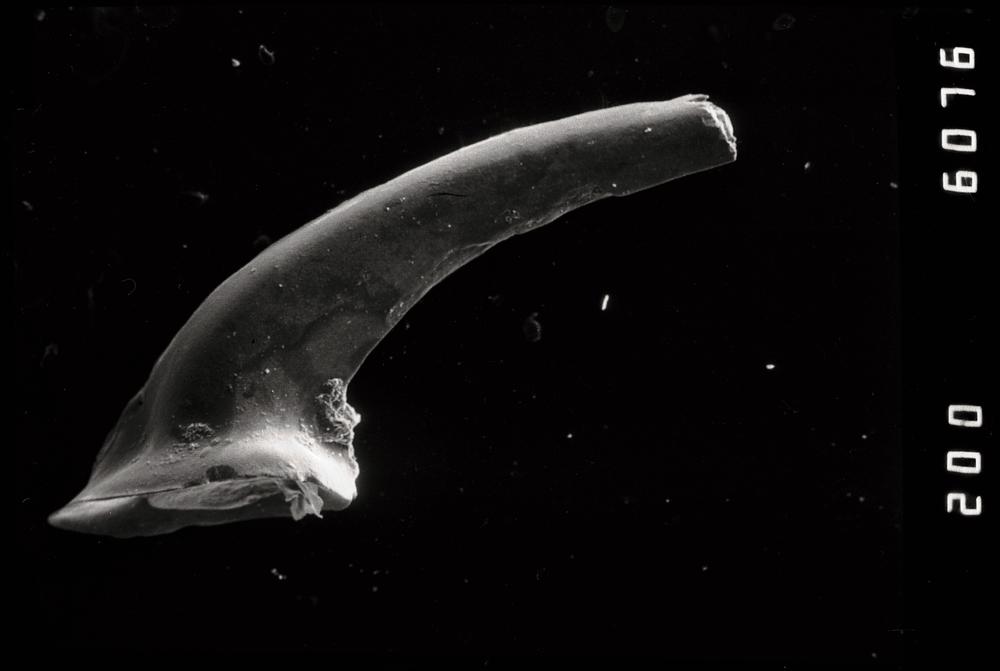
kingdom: Animalia
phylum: Chordata
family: Drepanoistodontidae
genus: Drepanoistodus
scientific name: Drepanoistodus
